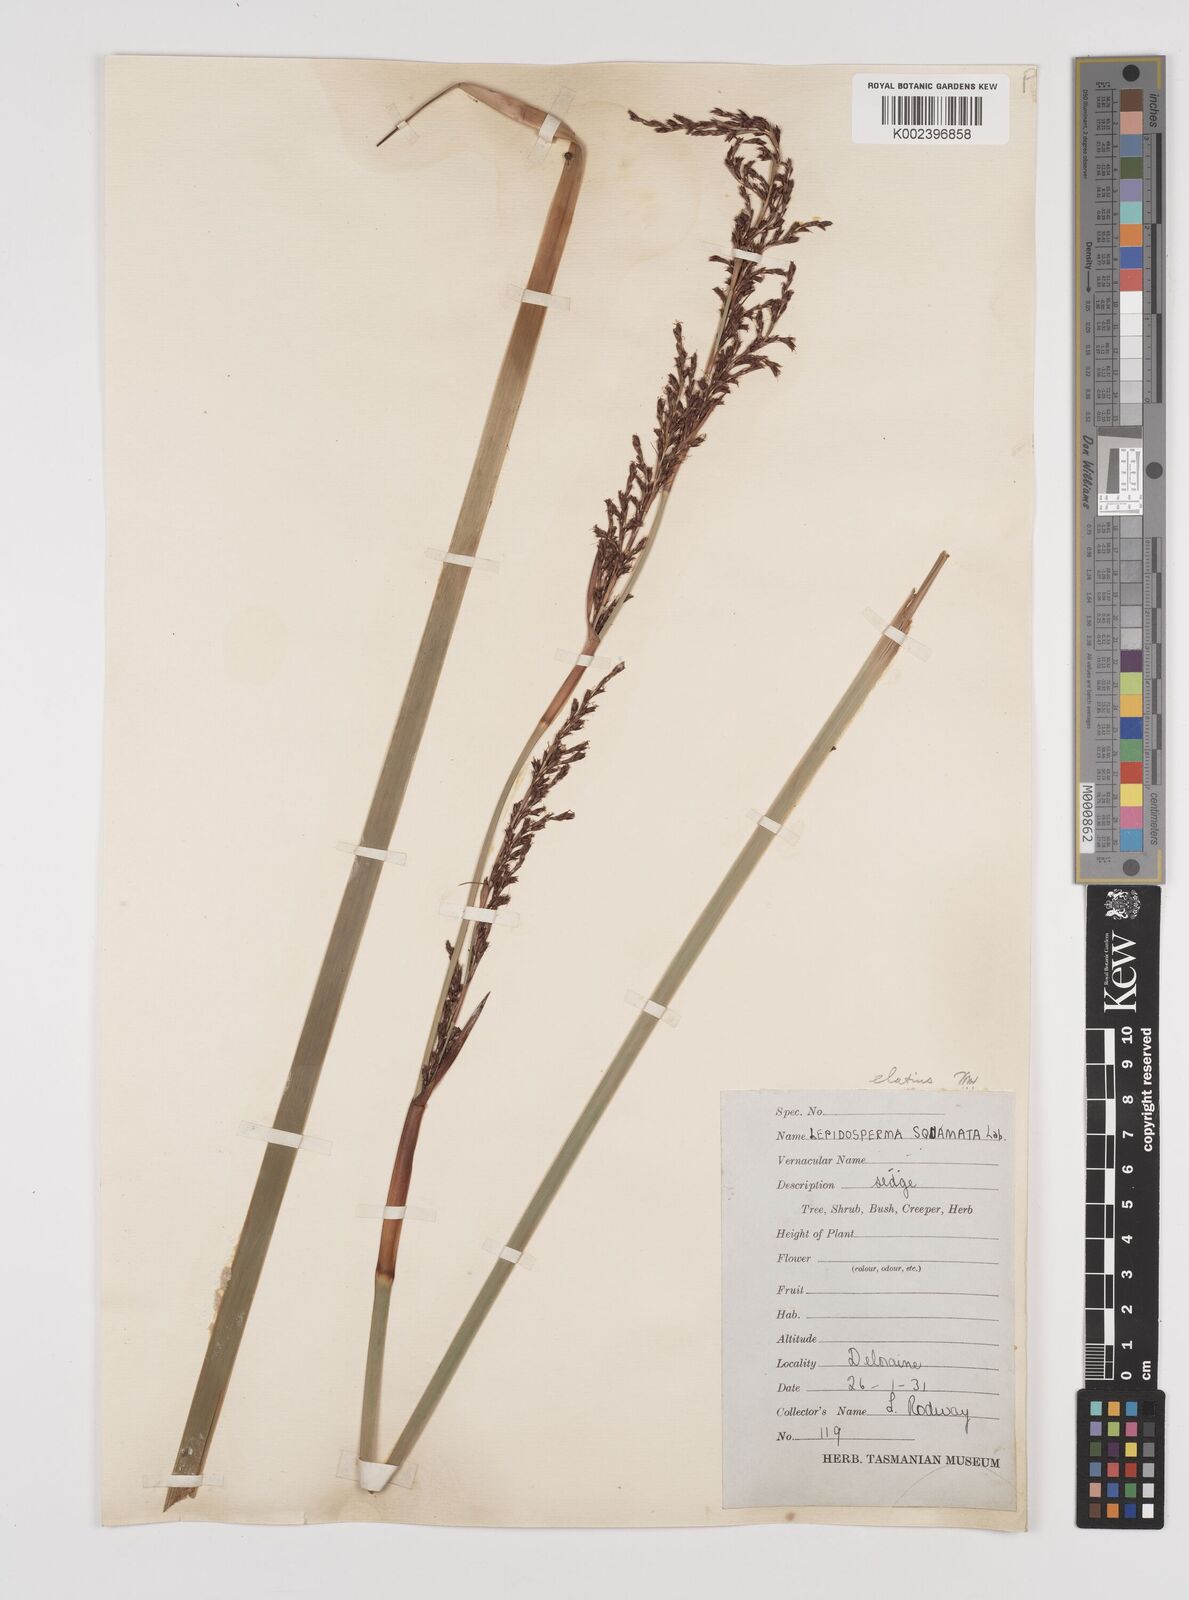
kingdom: Plantae
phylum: Tracheophyta
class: Liliopsida
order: Poales
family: Cyperaceae
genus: Lepidosperma
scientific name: Lepidosperma laterale
